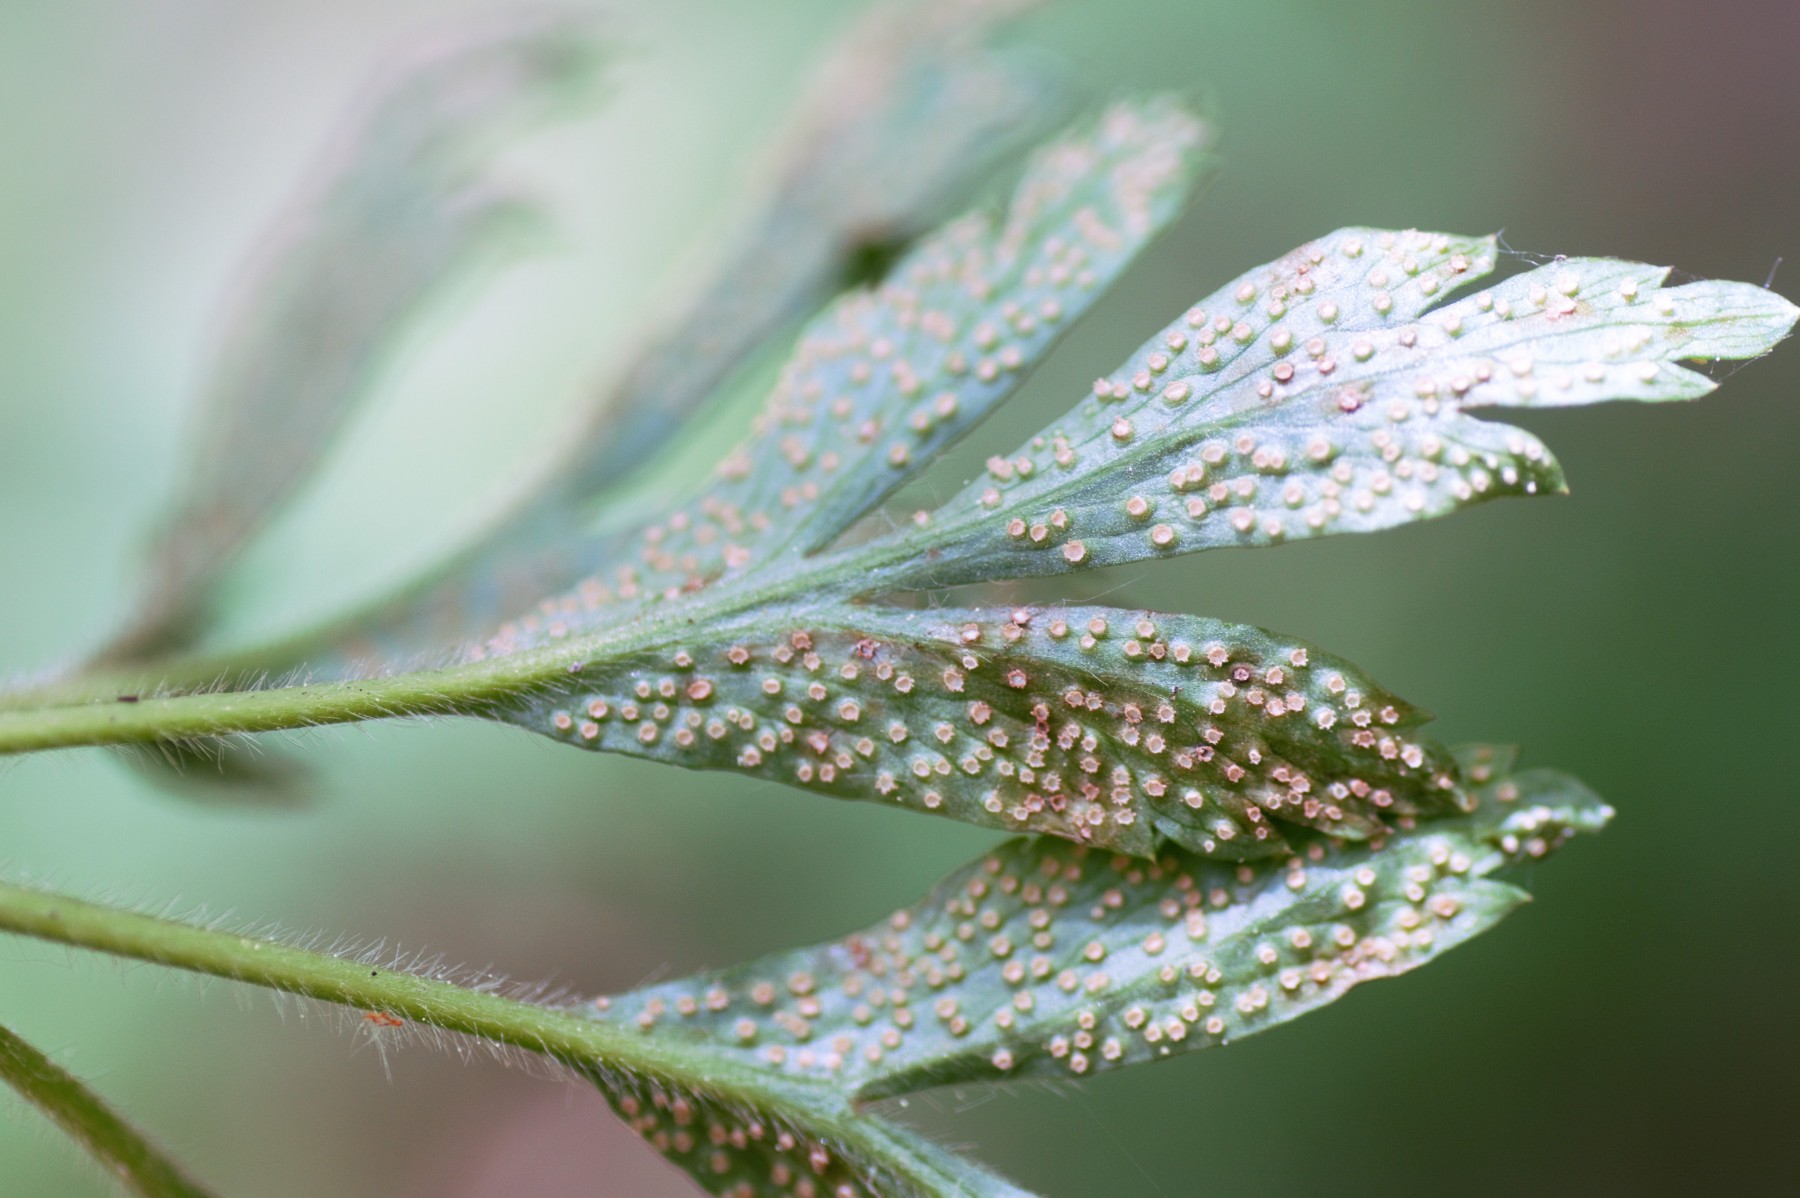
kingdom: Fungi
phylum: Basidiomycota
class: Pucciniomycetes
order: Pucciniales
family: Ochropsoraceae
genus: Ochropsora
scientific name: Ochropsora ariae
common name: anemone-okkerpletrust
